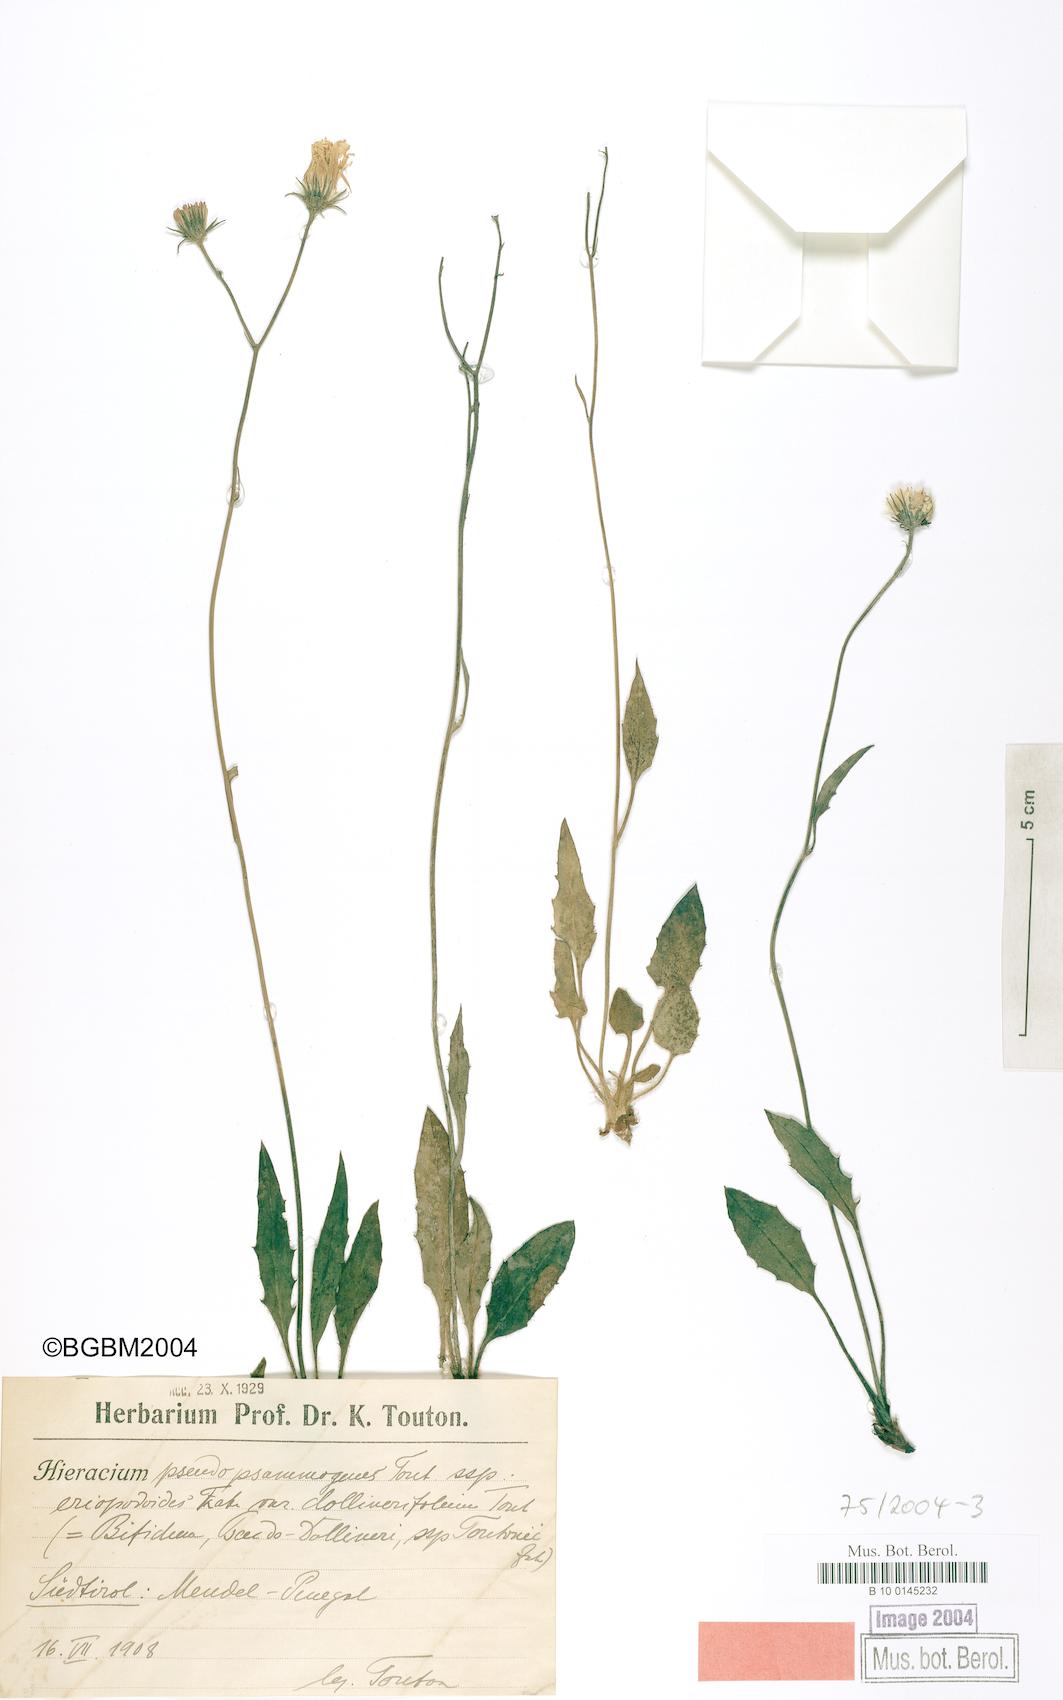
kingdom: Plantae
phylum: Tracheophyta
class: Magnoliopsida
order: Asterales
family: Asteraceae
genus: Hieracium
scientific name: Hieracium bifidum
